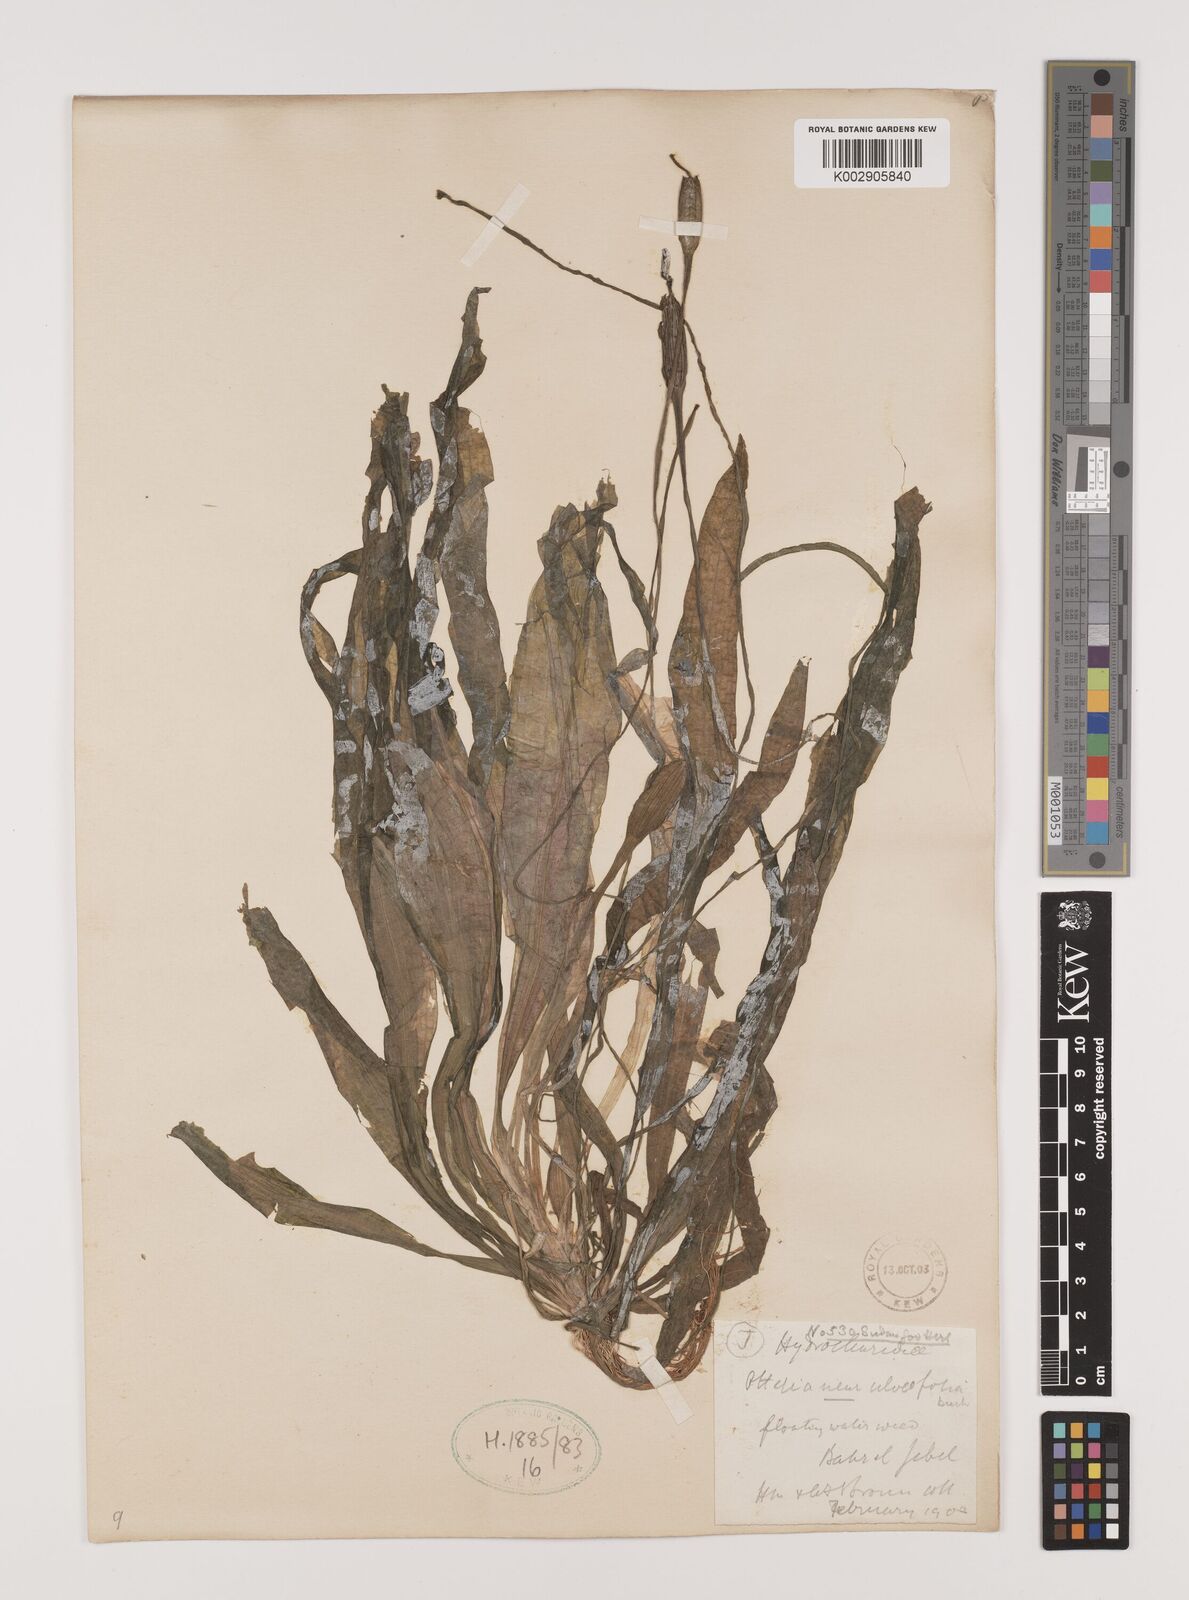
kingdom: Plantae
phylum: Tracheophyta
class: Liliopsida
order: Alismatales
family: Hydrocharitaceae
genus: Ottelia
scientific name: Ottelia ulvifolia
